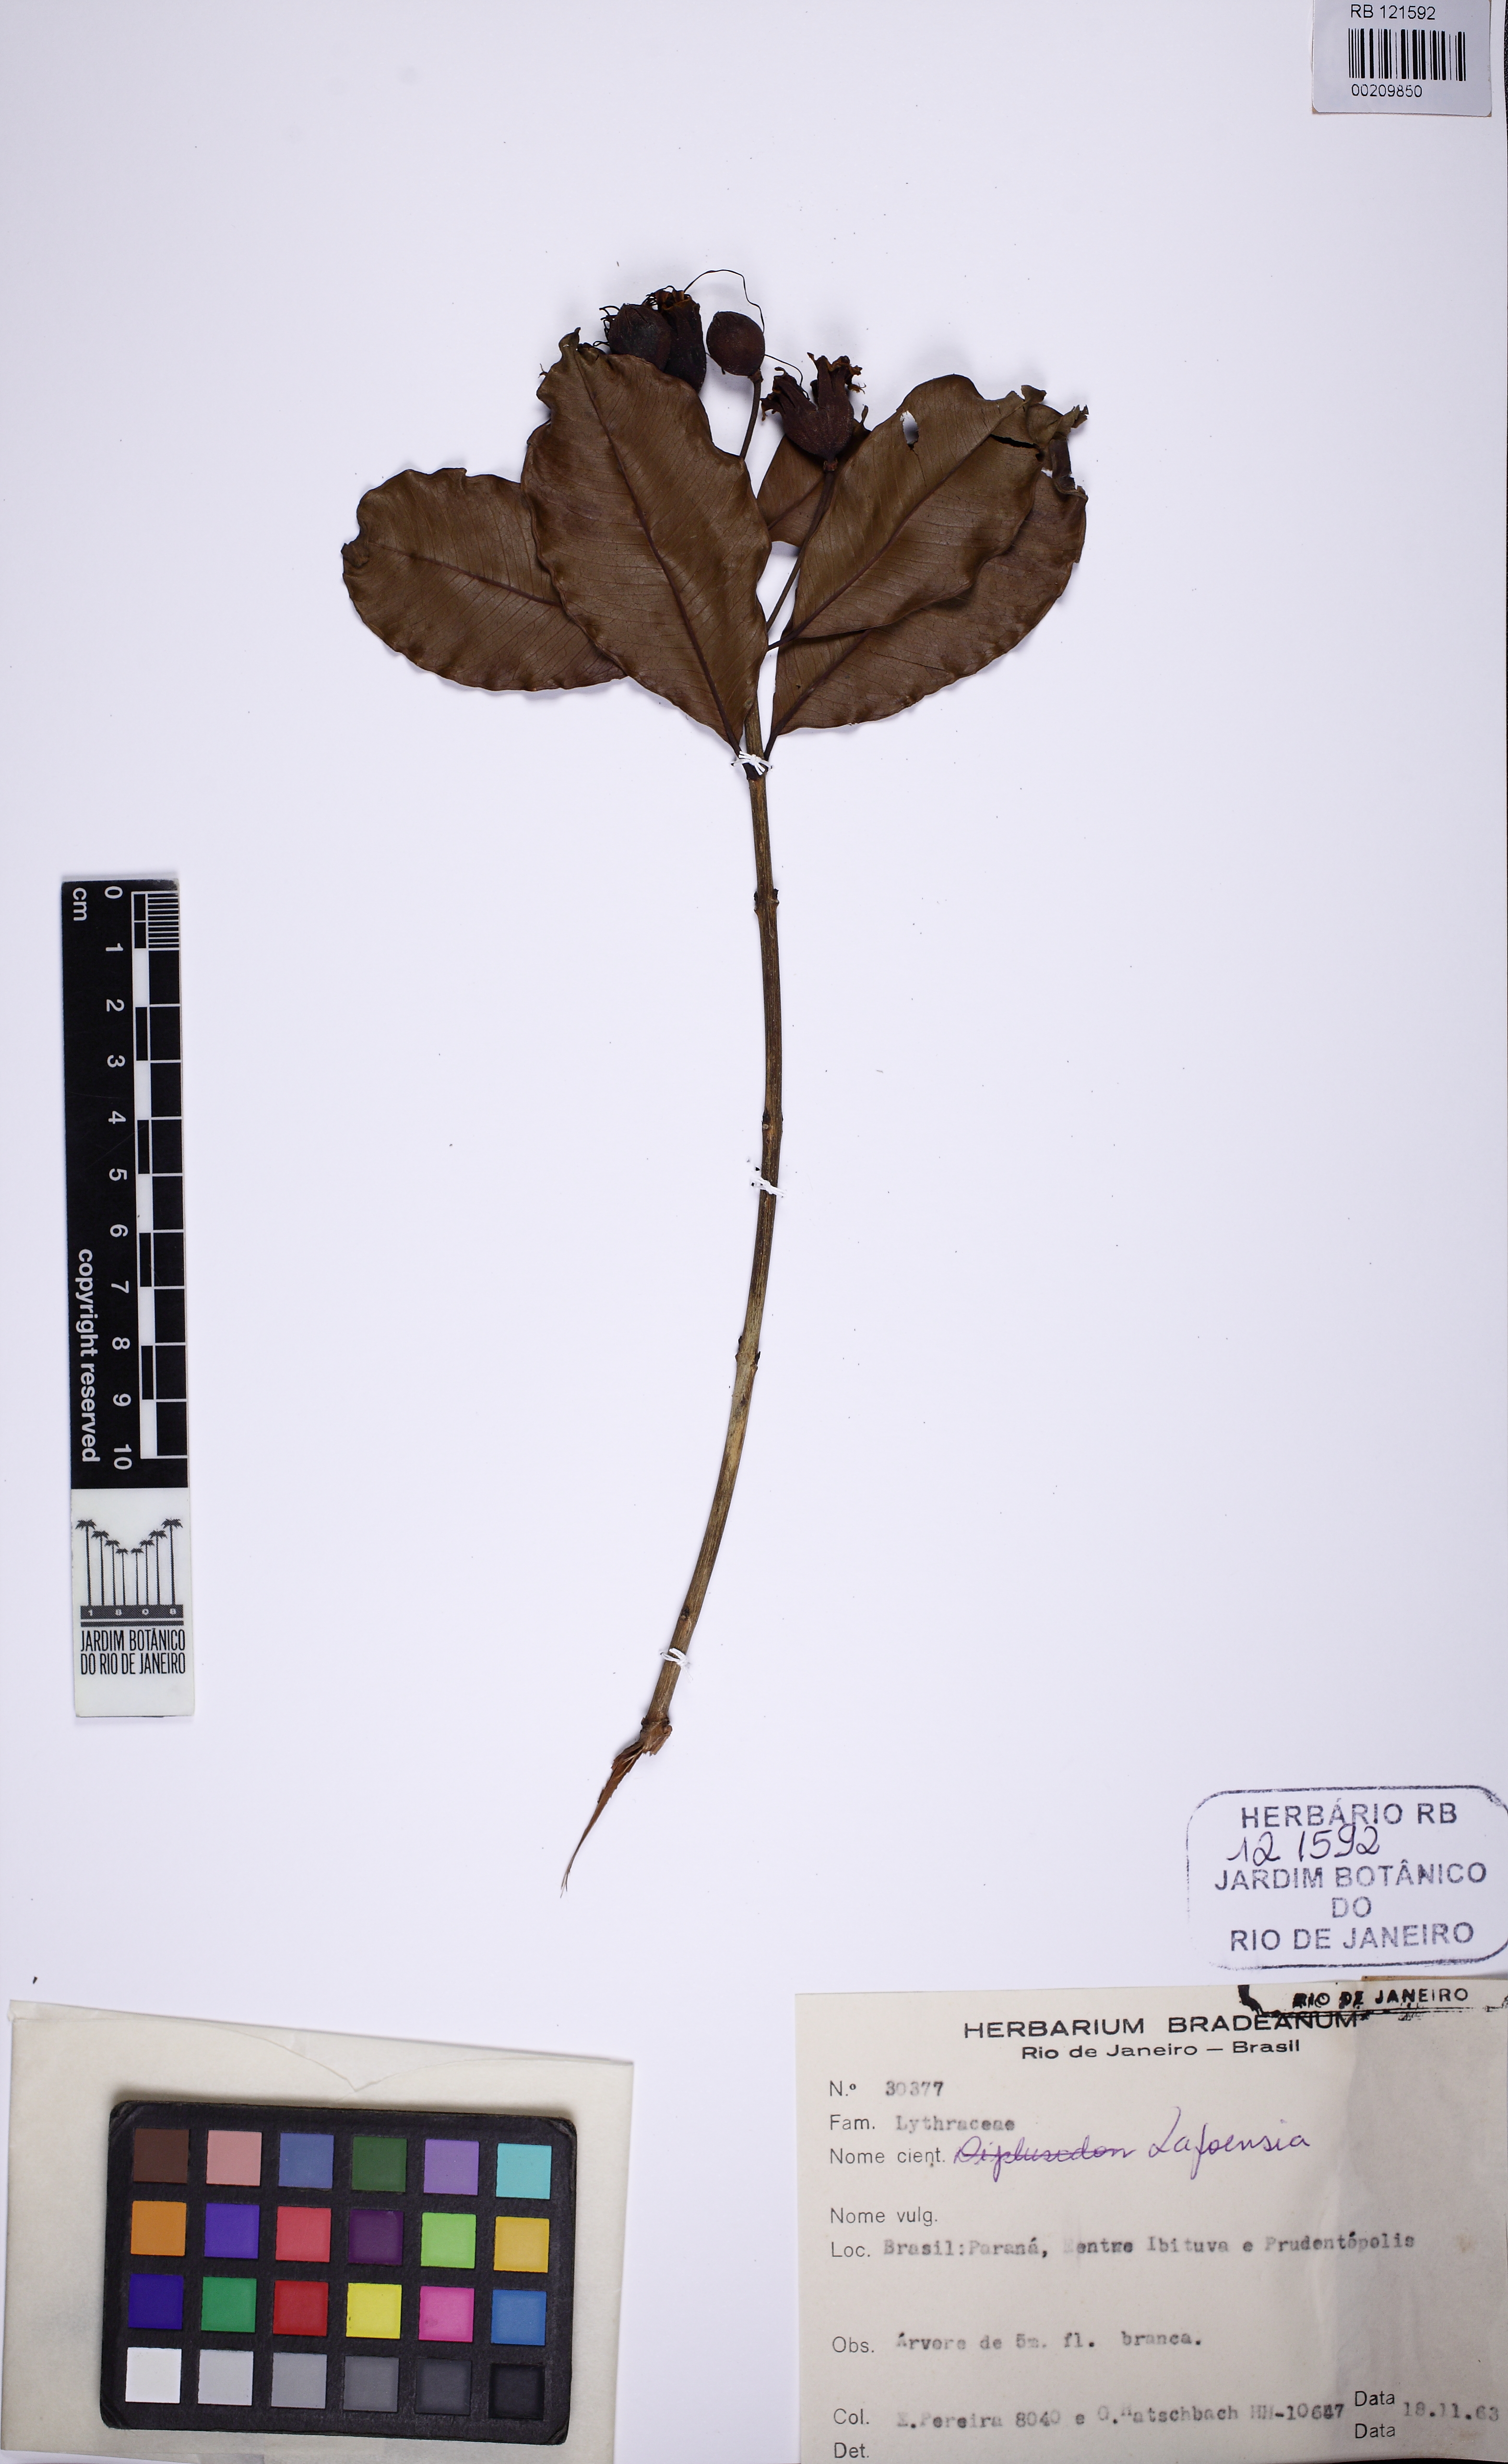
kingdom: Plantae
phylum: Tracheophyta
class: Magnoliopsida
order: Myrtales
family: Lythraceae
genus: Lafoensia
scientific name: Lafoensia
